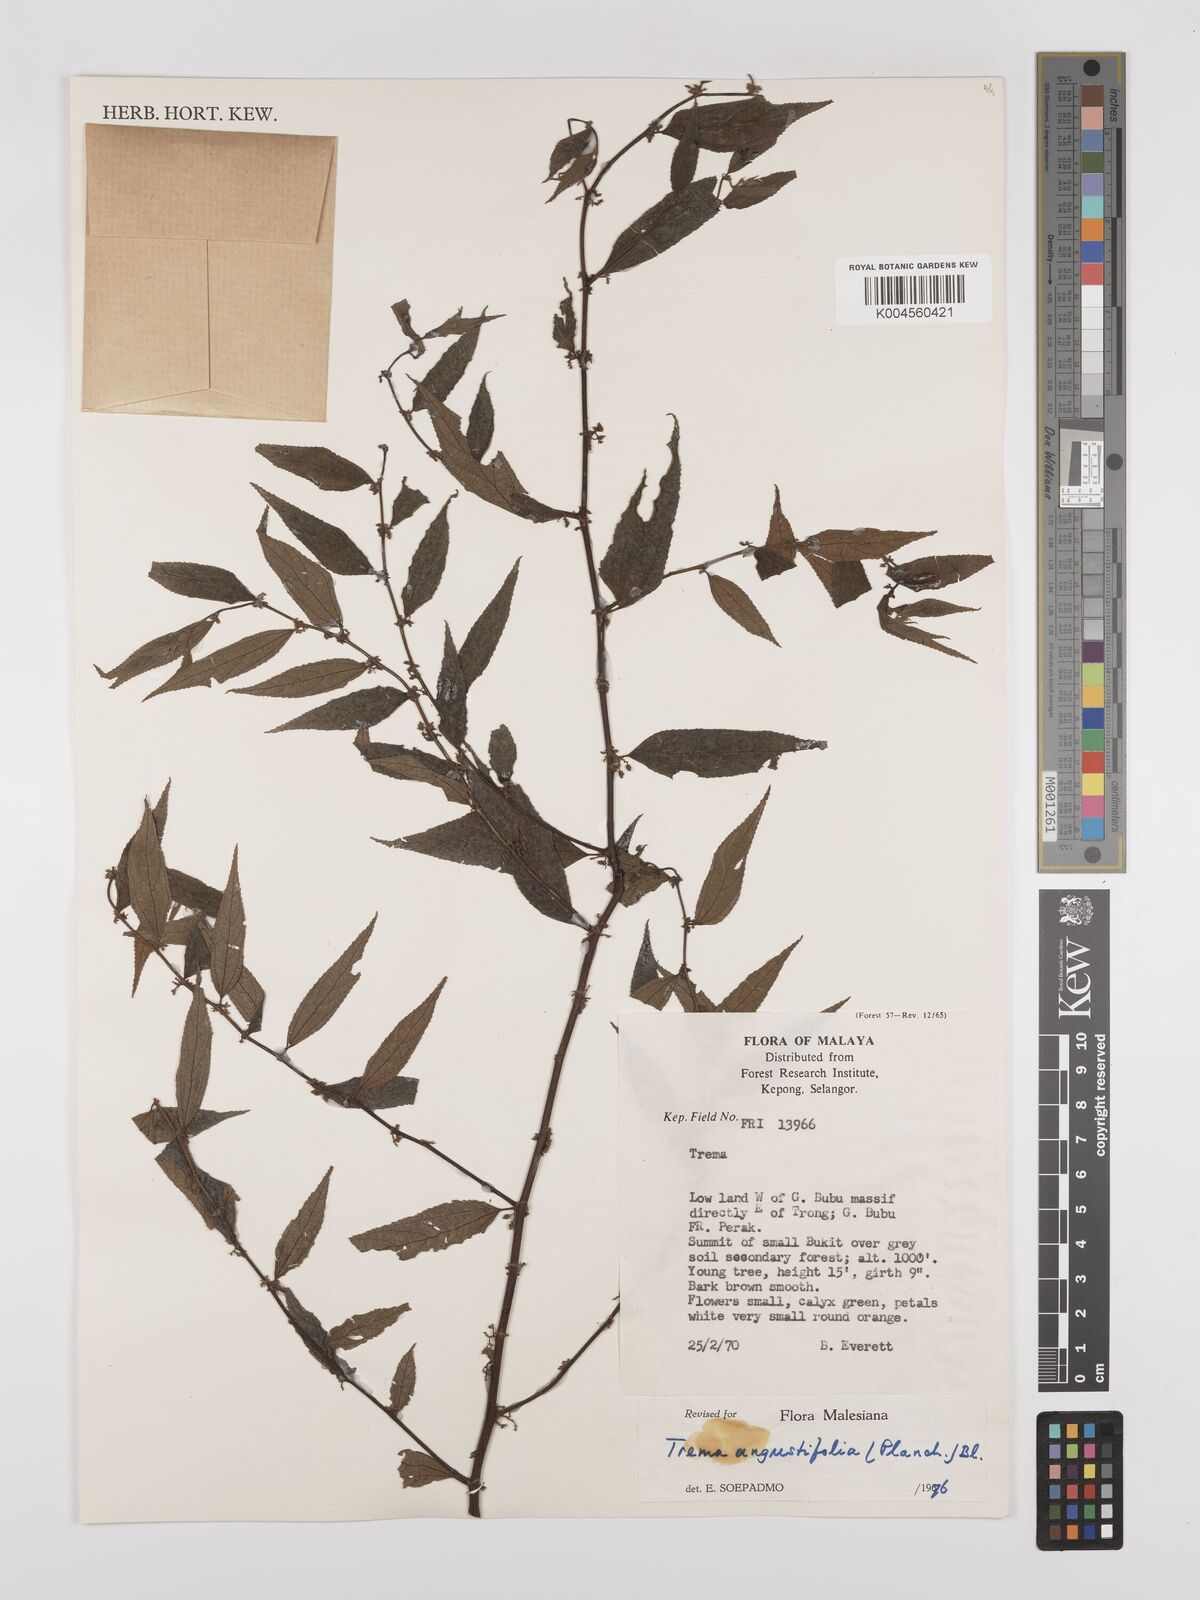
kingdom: Plantae
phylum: Tracheophyta
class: Magnoliopsida
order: Rosales
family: Cannabaceae
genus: Trema
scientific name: Trema angustifolium
